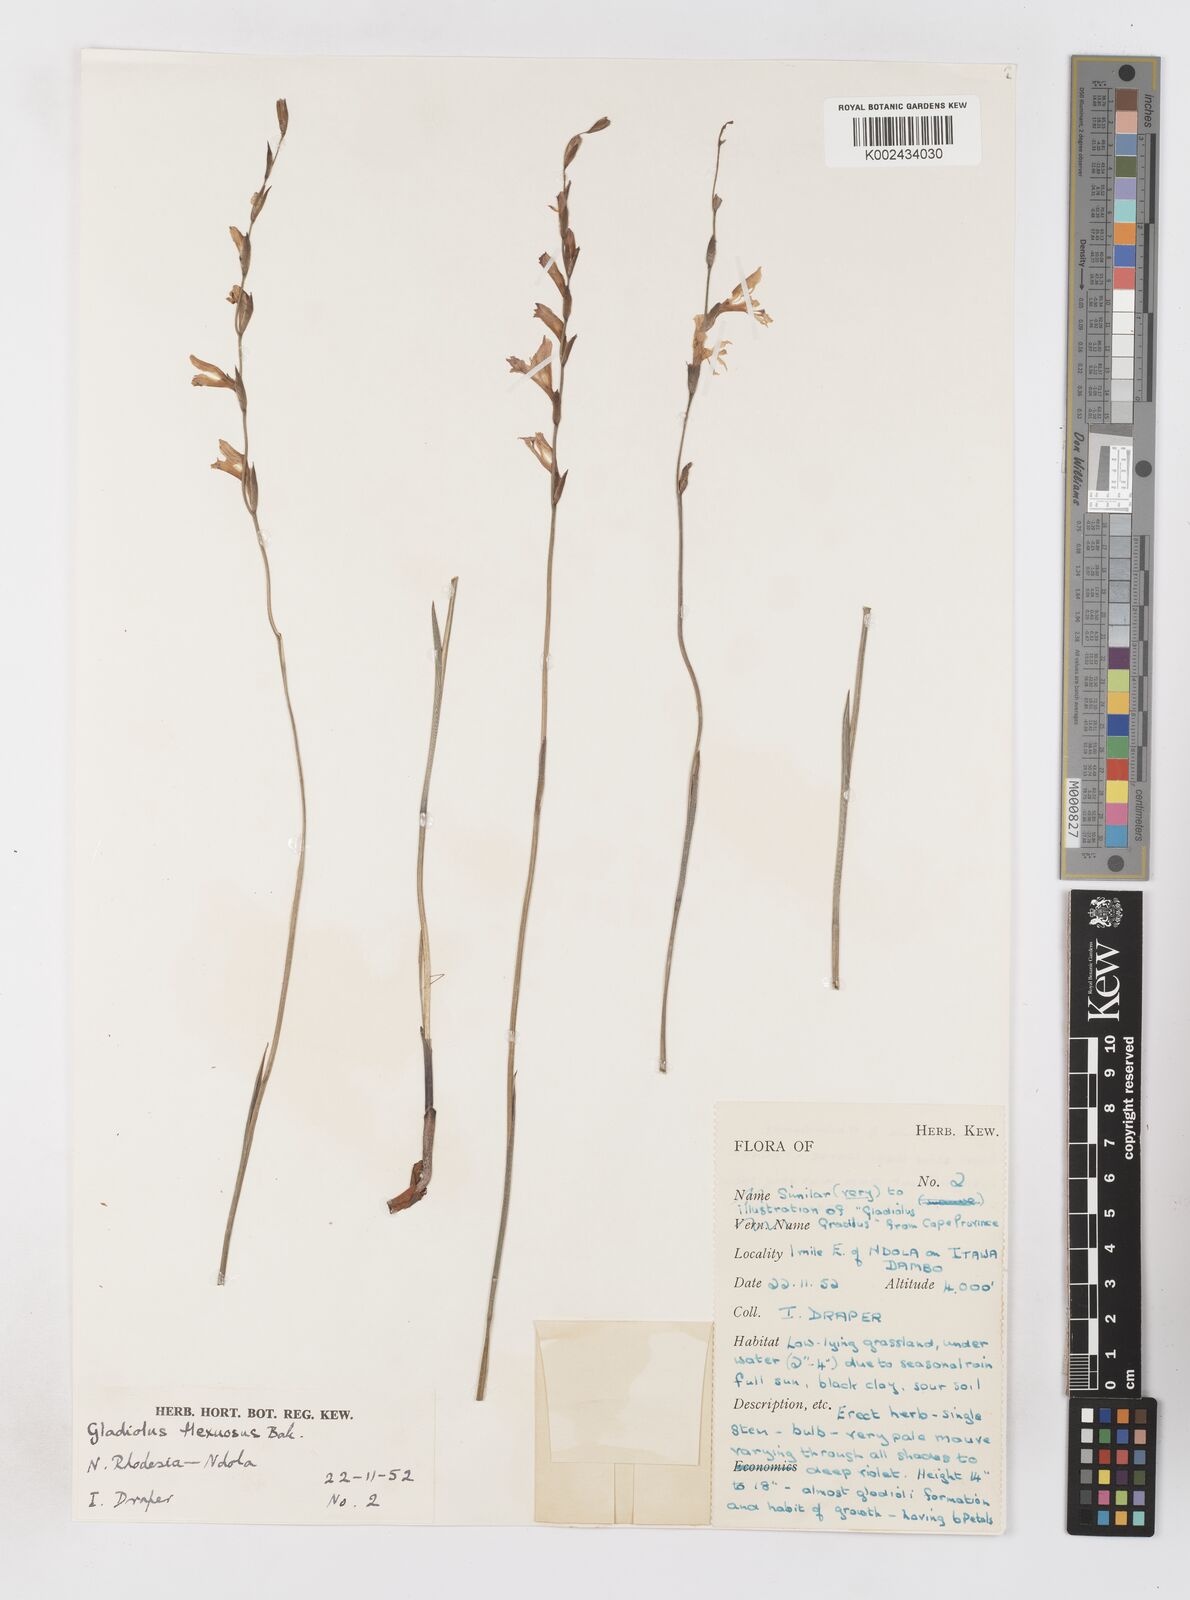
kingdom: Plantae
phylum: Tracheophyta
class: Liliopsida
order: Asparagales
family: Iridaceae
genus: Gladiolus
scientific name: Gladiolus atropurpureus
